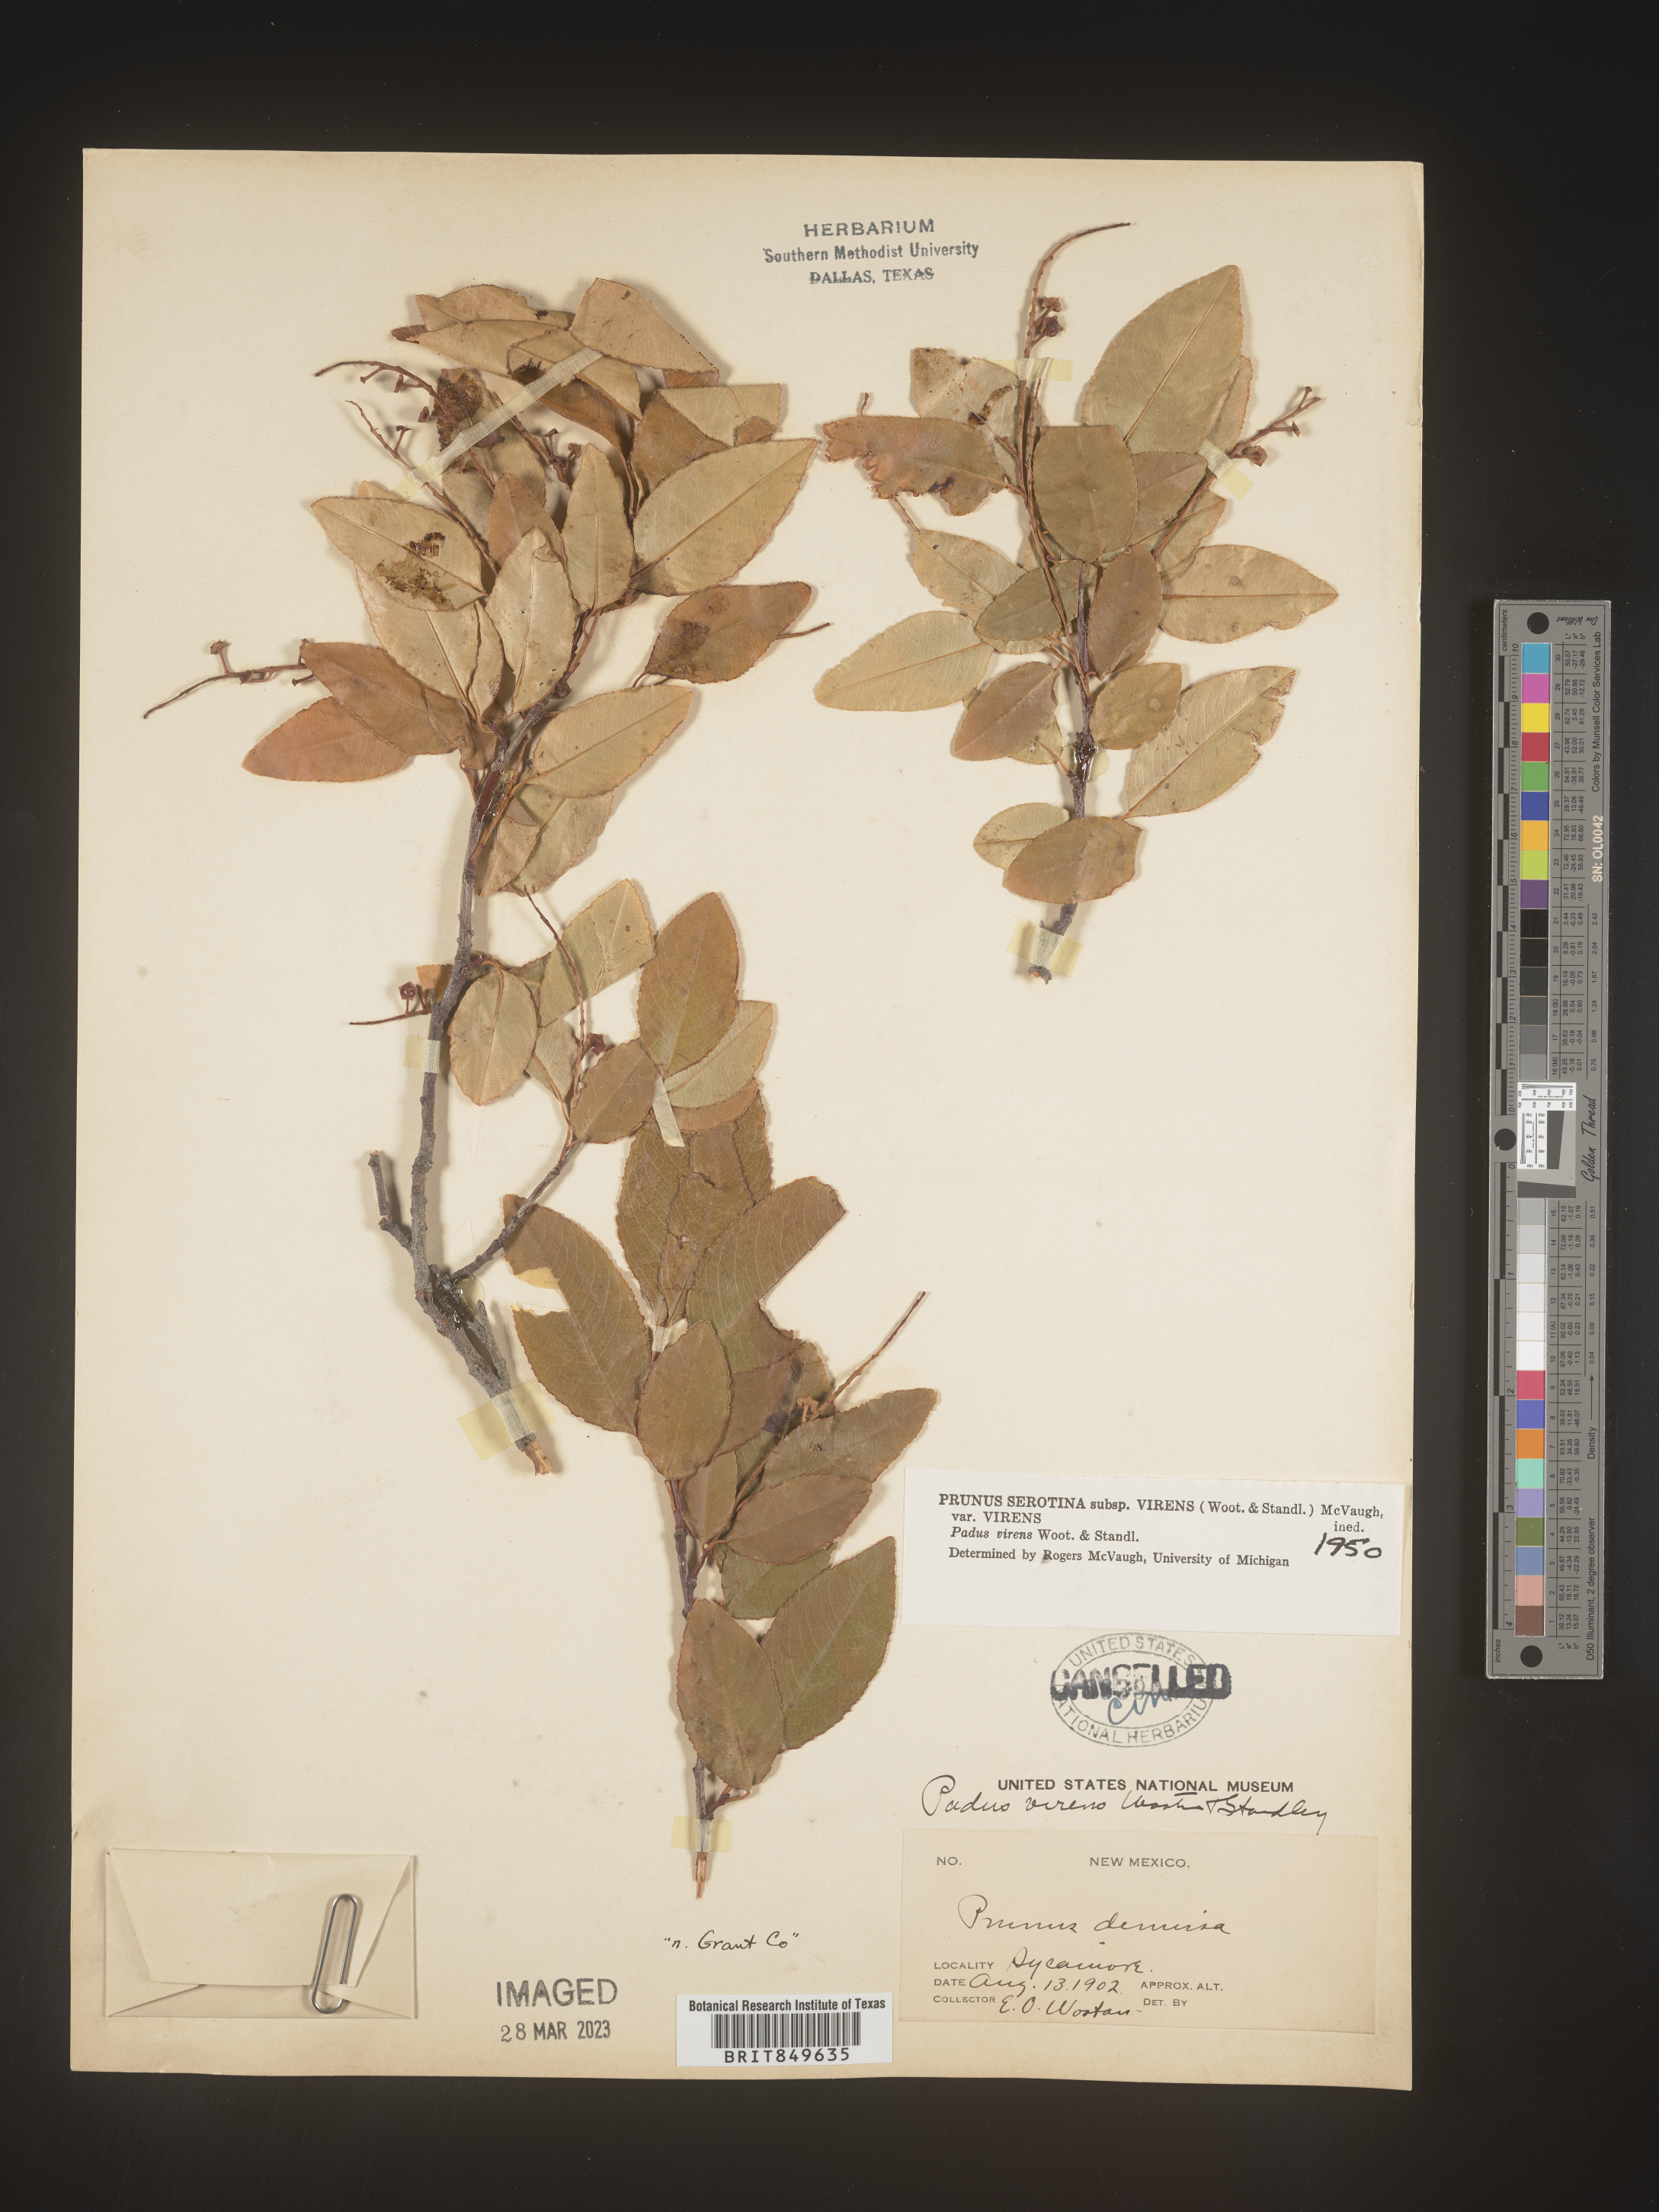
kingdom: Plantae
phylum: Tracheophyta
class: Magnoliopsida
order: Rosales
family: Rosaceae
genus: Prunus
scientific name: Prunus serotina
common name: Black cherry
